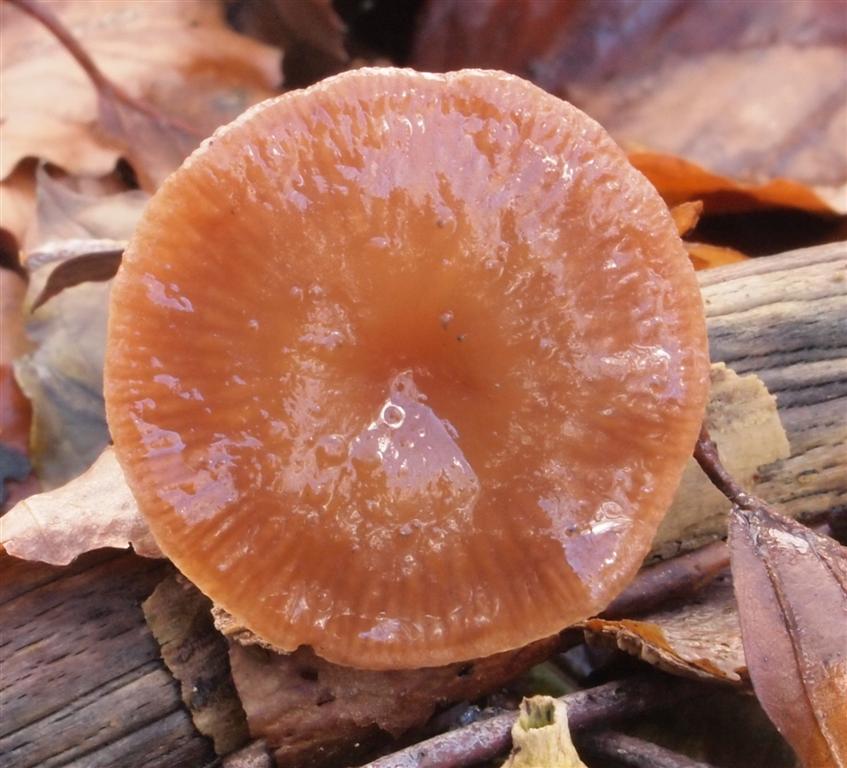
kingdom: Fungi
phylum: Basidiomycota
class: Agaricomycetes
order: Agaricales
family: Omphalotaceae
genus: Gymnopus
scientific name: Gymnopus fuscopurpureus
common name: purpurbrun fladhat
